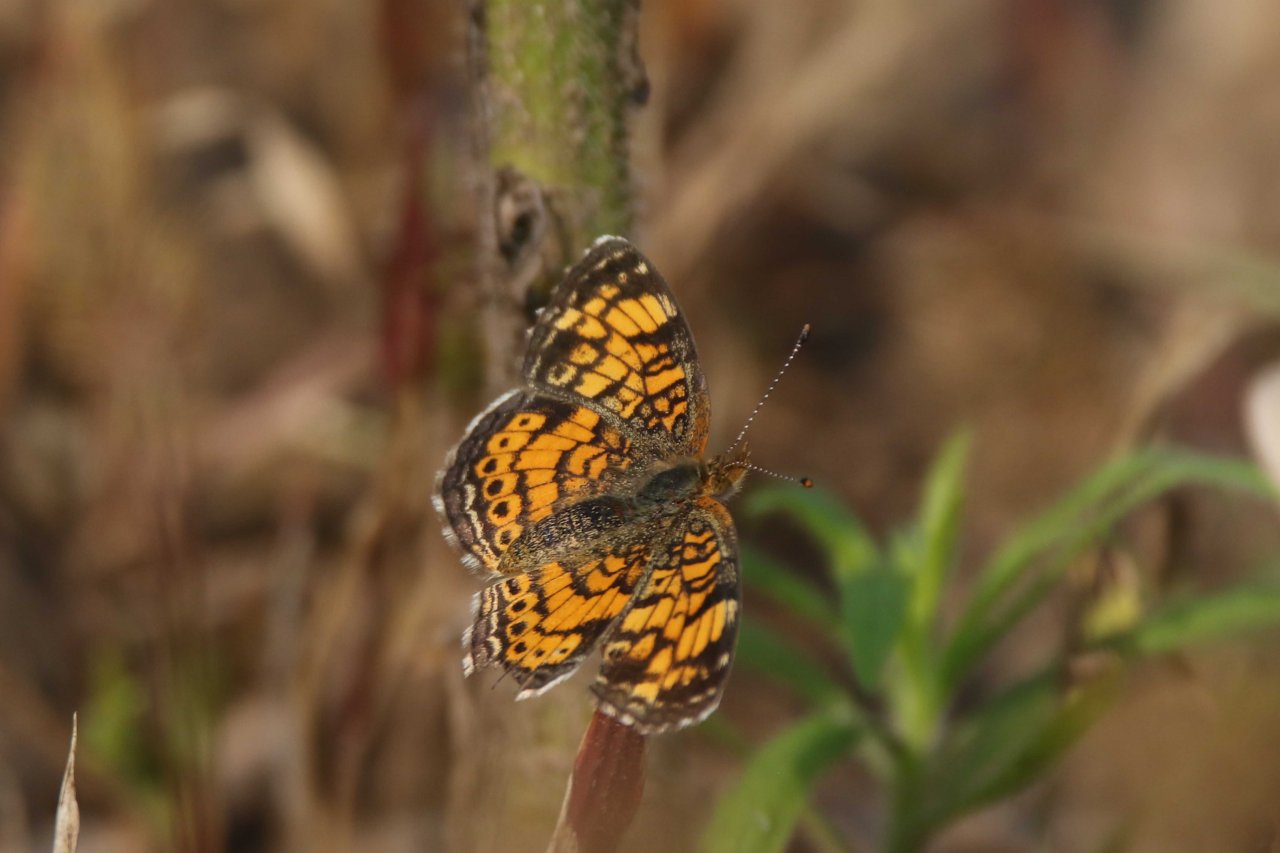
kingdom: Animalia
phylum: Arthropoda
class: Insecta
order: Lepidoptera
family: Nymphalidae
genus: Phyciodes
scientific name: Phyciodes tharos
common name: Northern Crescent
